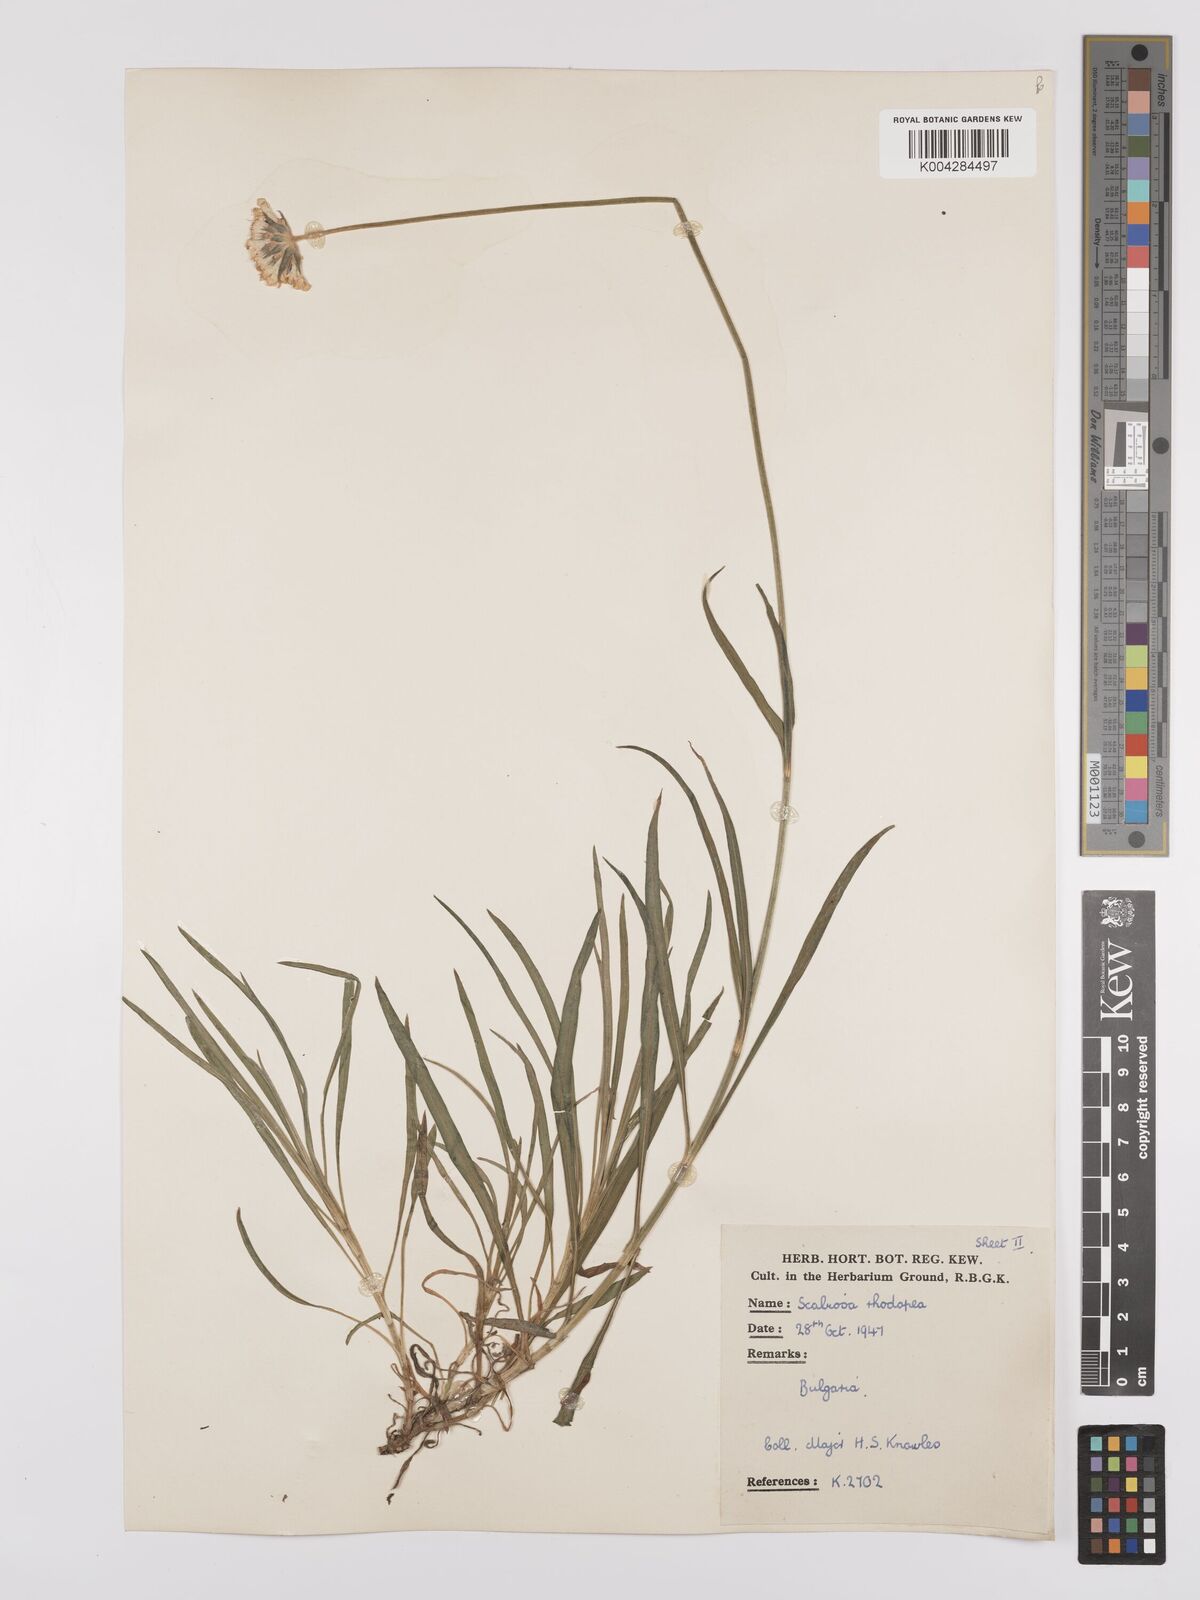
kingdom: Plantae
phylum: Tracheophyta
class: Magnoliopsida
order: Dipsacales
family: Caprifoliaceae
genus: Scabiosa
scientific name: Scabiosa ochroleuca
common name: Cream pincushions
